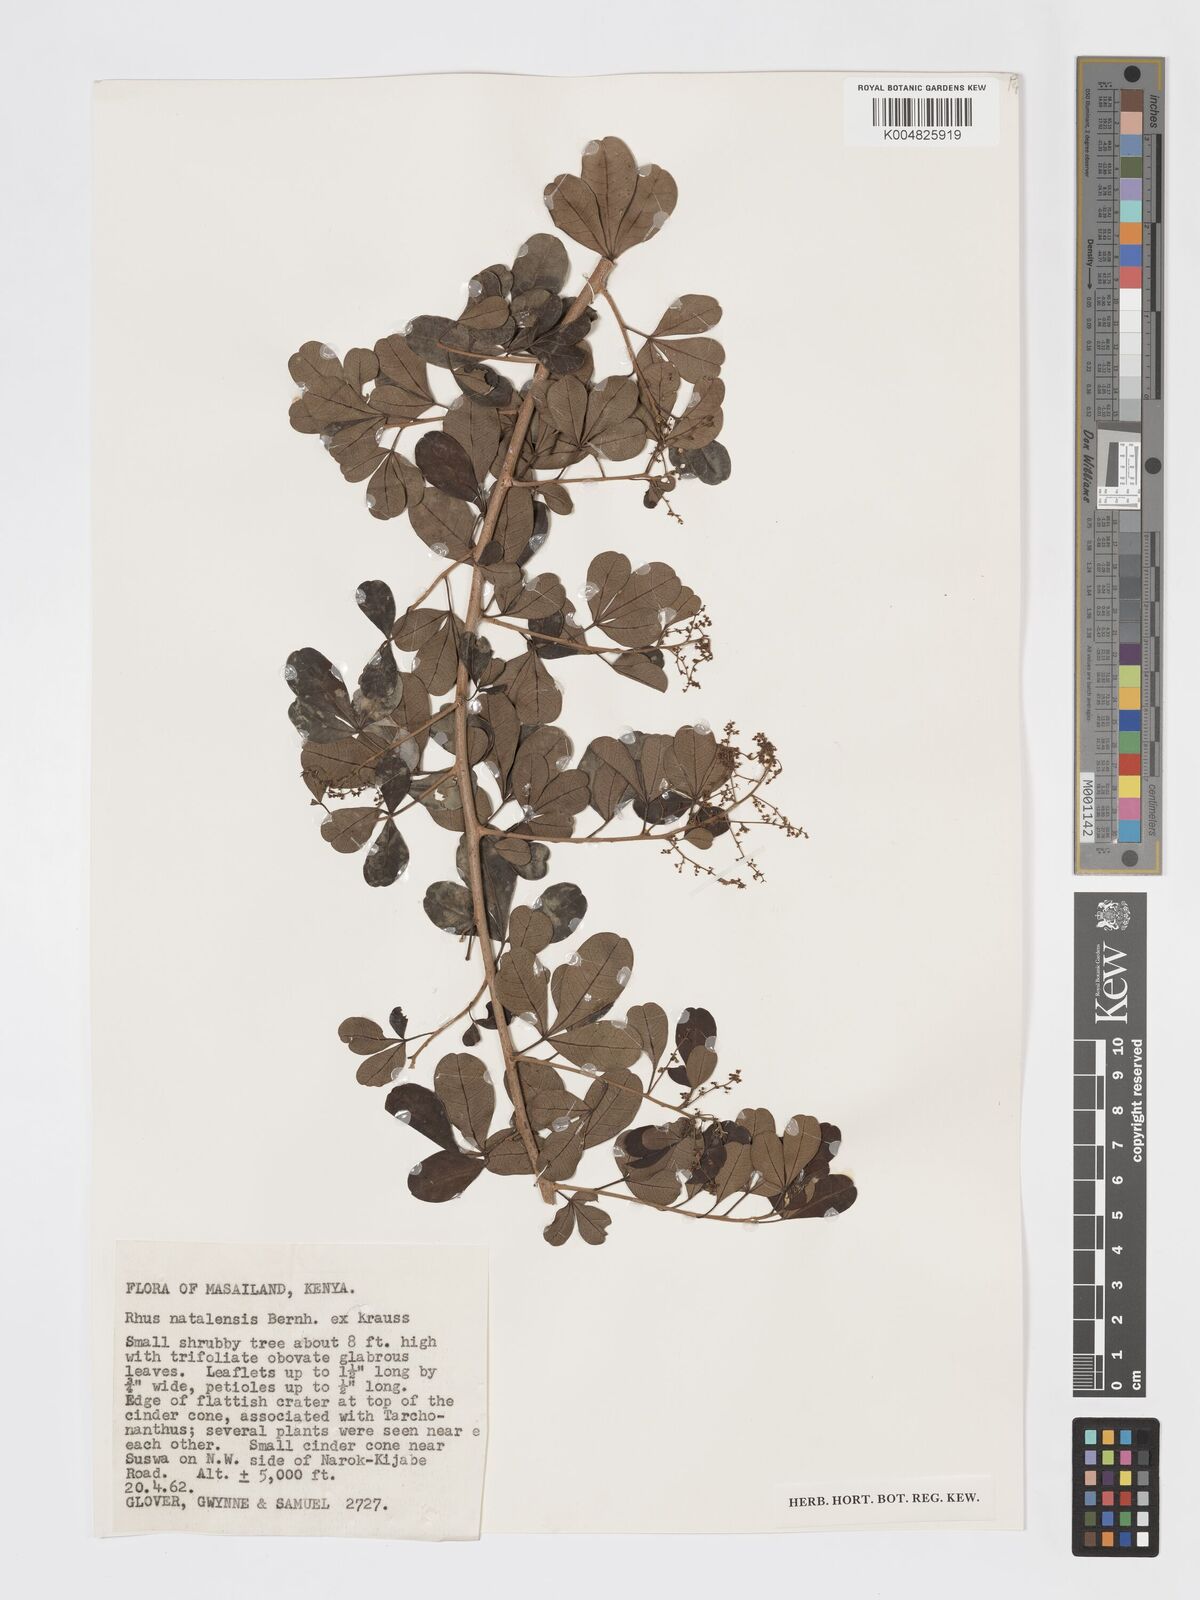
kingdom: Plantae
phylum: Tracheophyta
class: Magnoliopsida
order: Sapindales
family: Anacardiaceae
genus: Searsia
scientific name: Searsia natalensis
